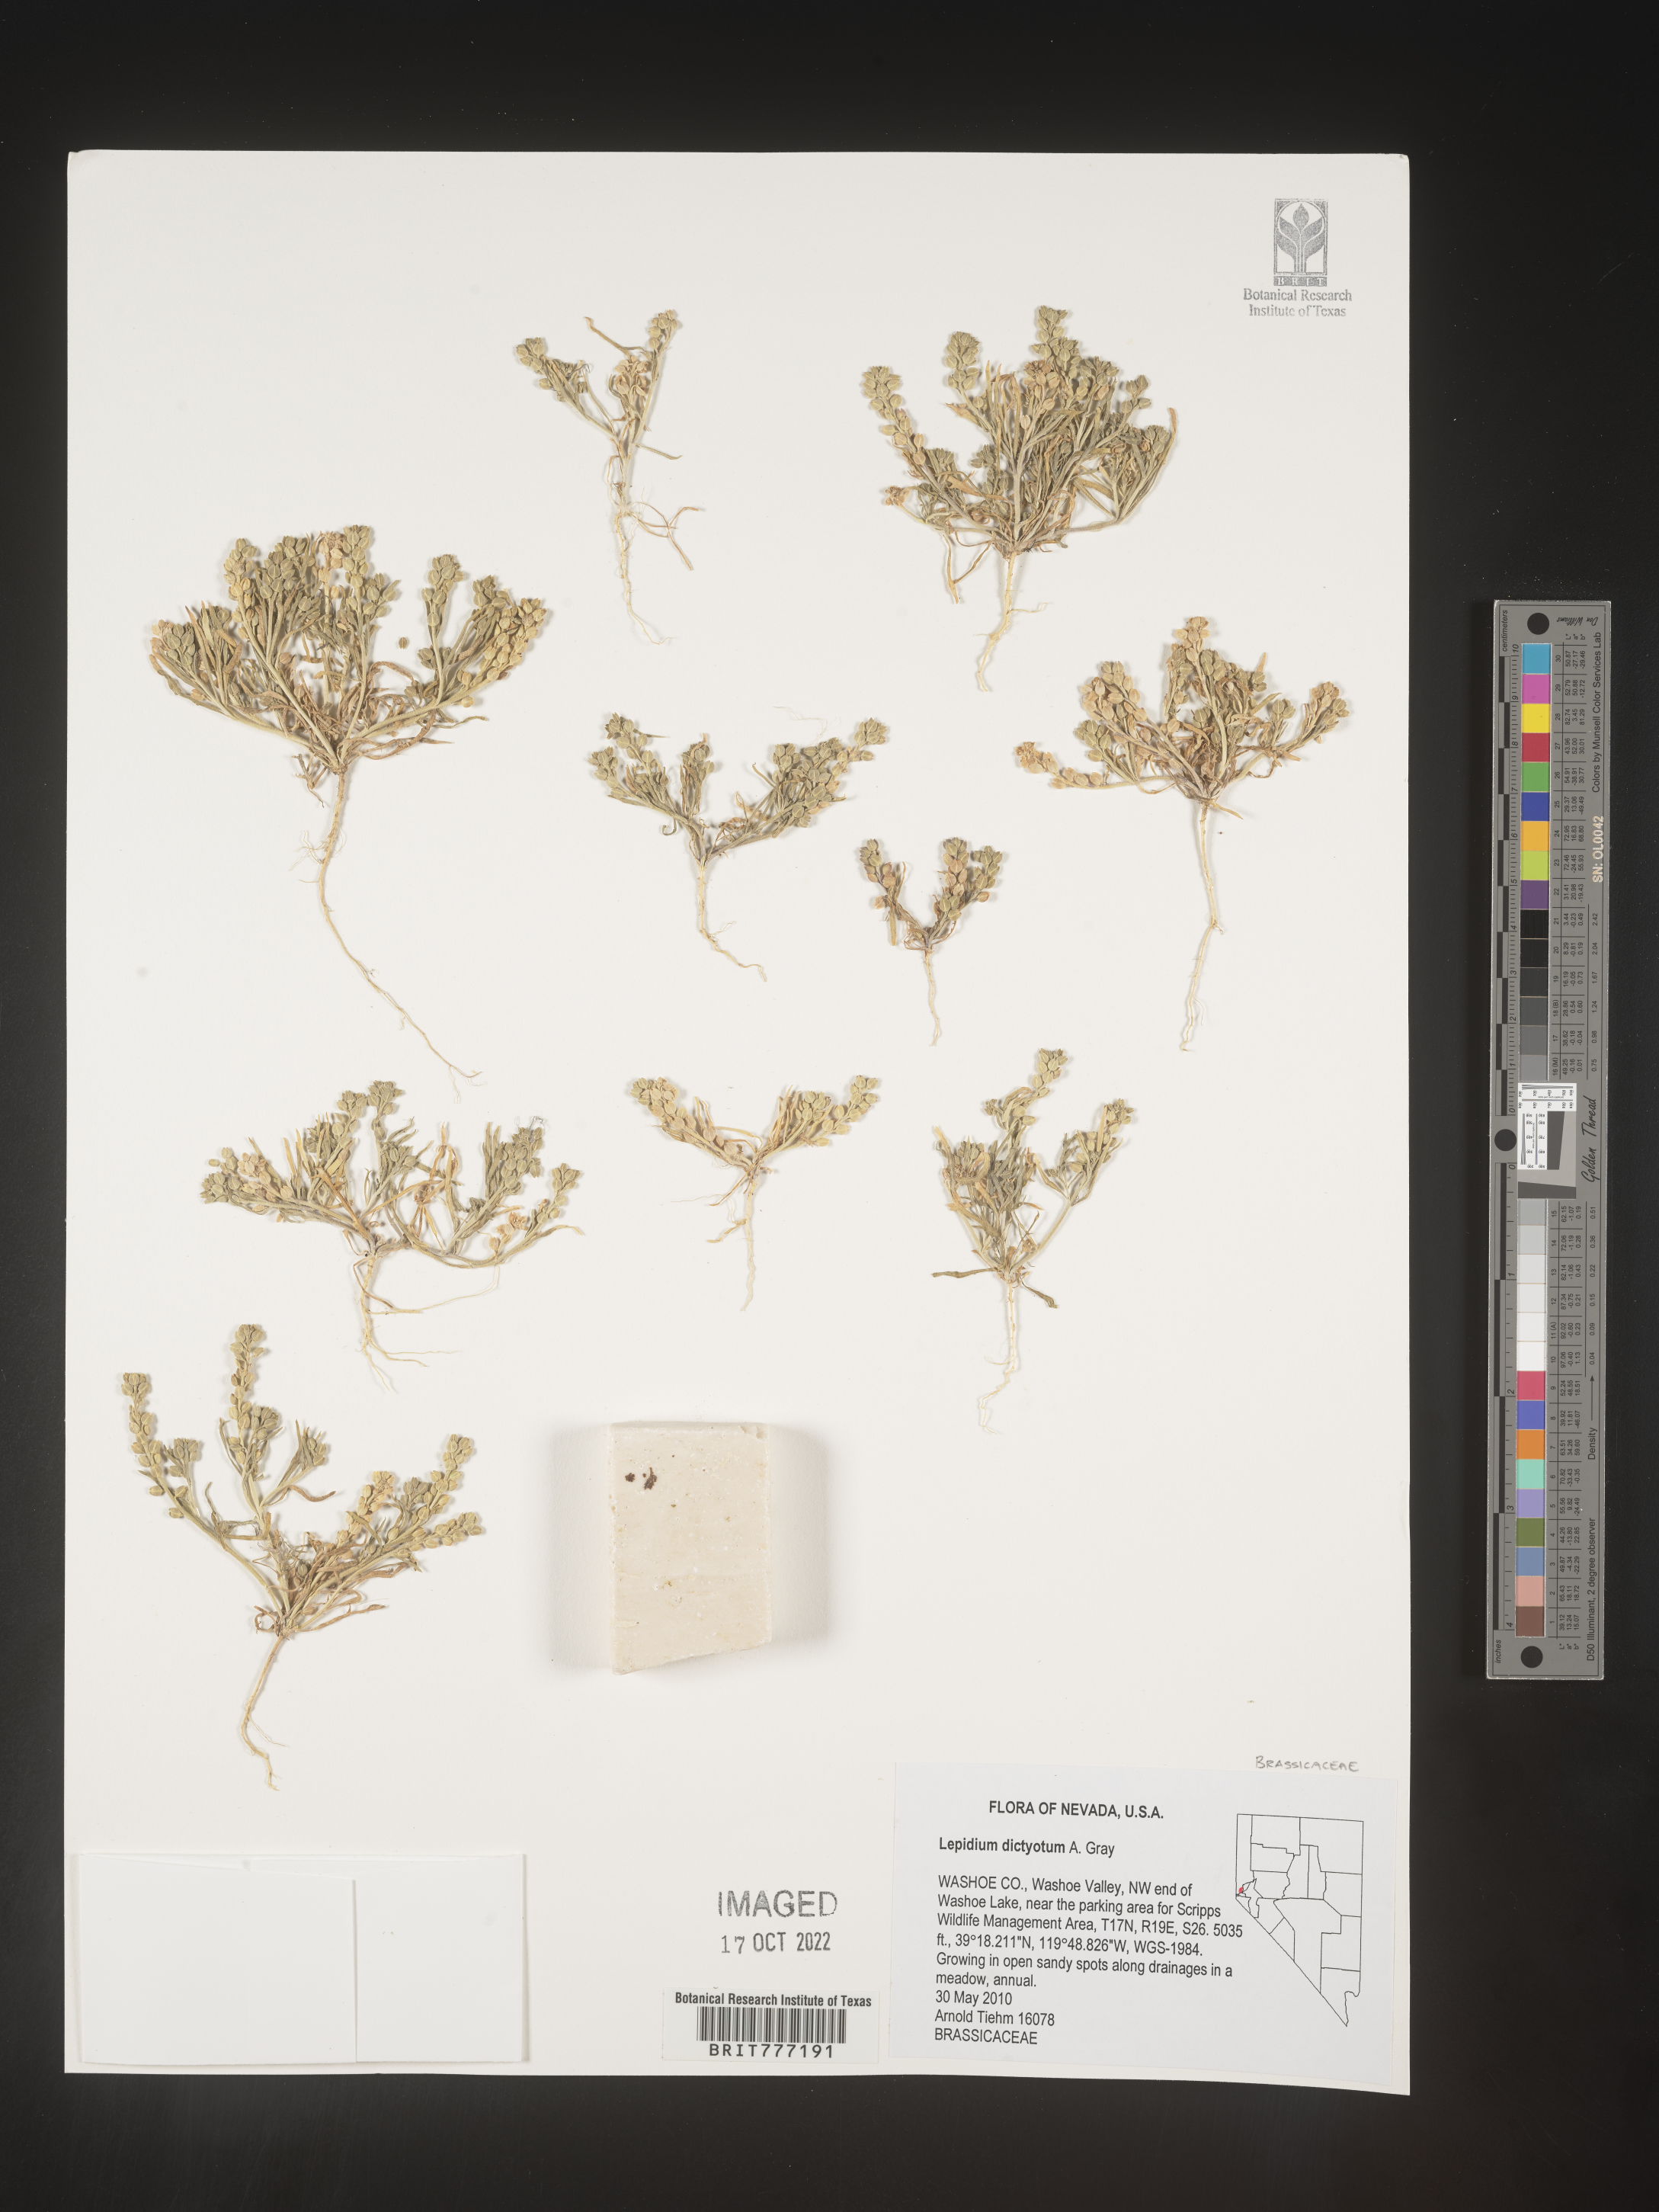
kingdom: Plantae
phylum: Tracheophyta
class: Magnoliopsida
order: Brassicales
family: Brassicaceae
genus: Lepidium
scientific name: Lepidium
